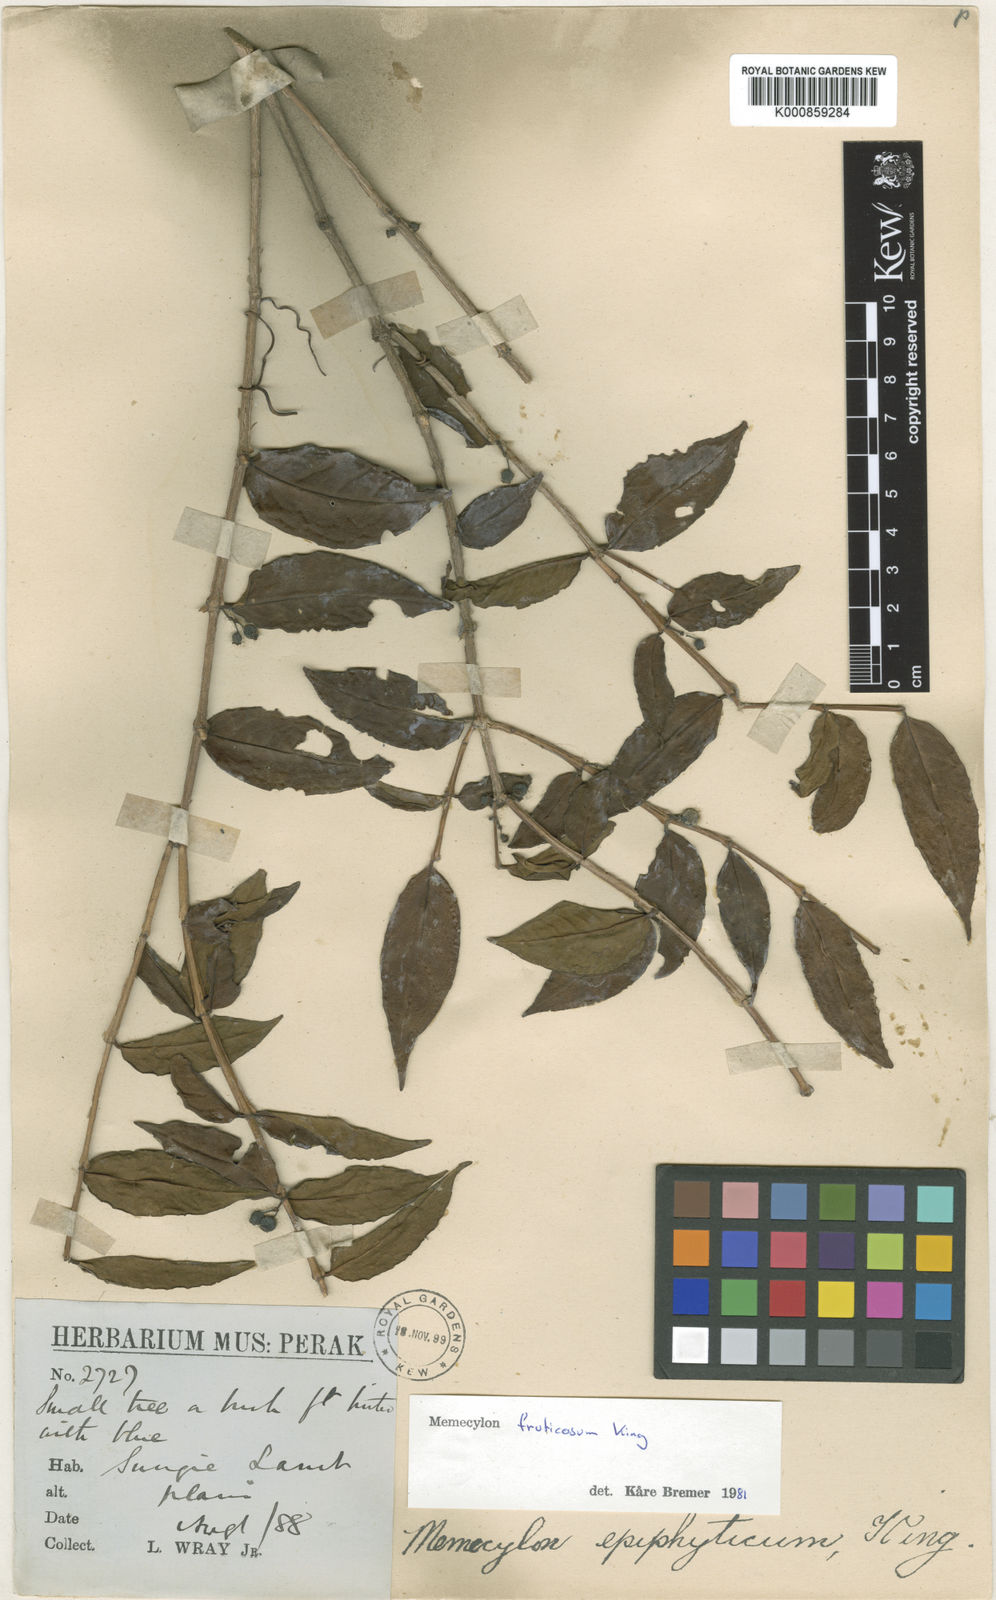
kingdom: Plantae
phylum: Tracheophyta
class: Magnoliopsida
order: Myrtales
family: Melastomataceae
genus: Memecylon
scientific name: Memecylon fruticosum
